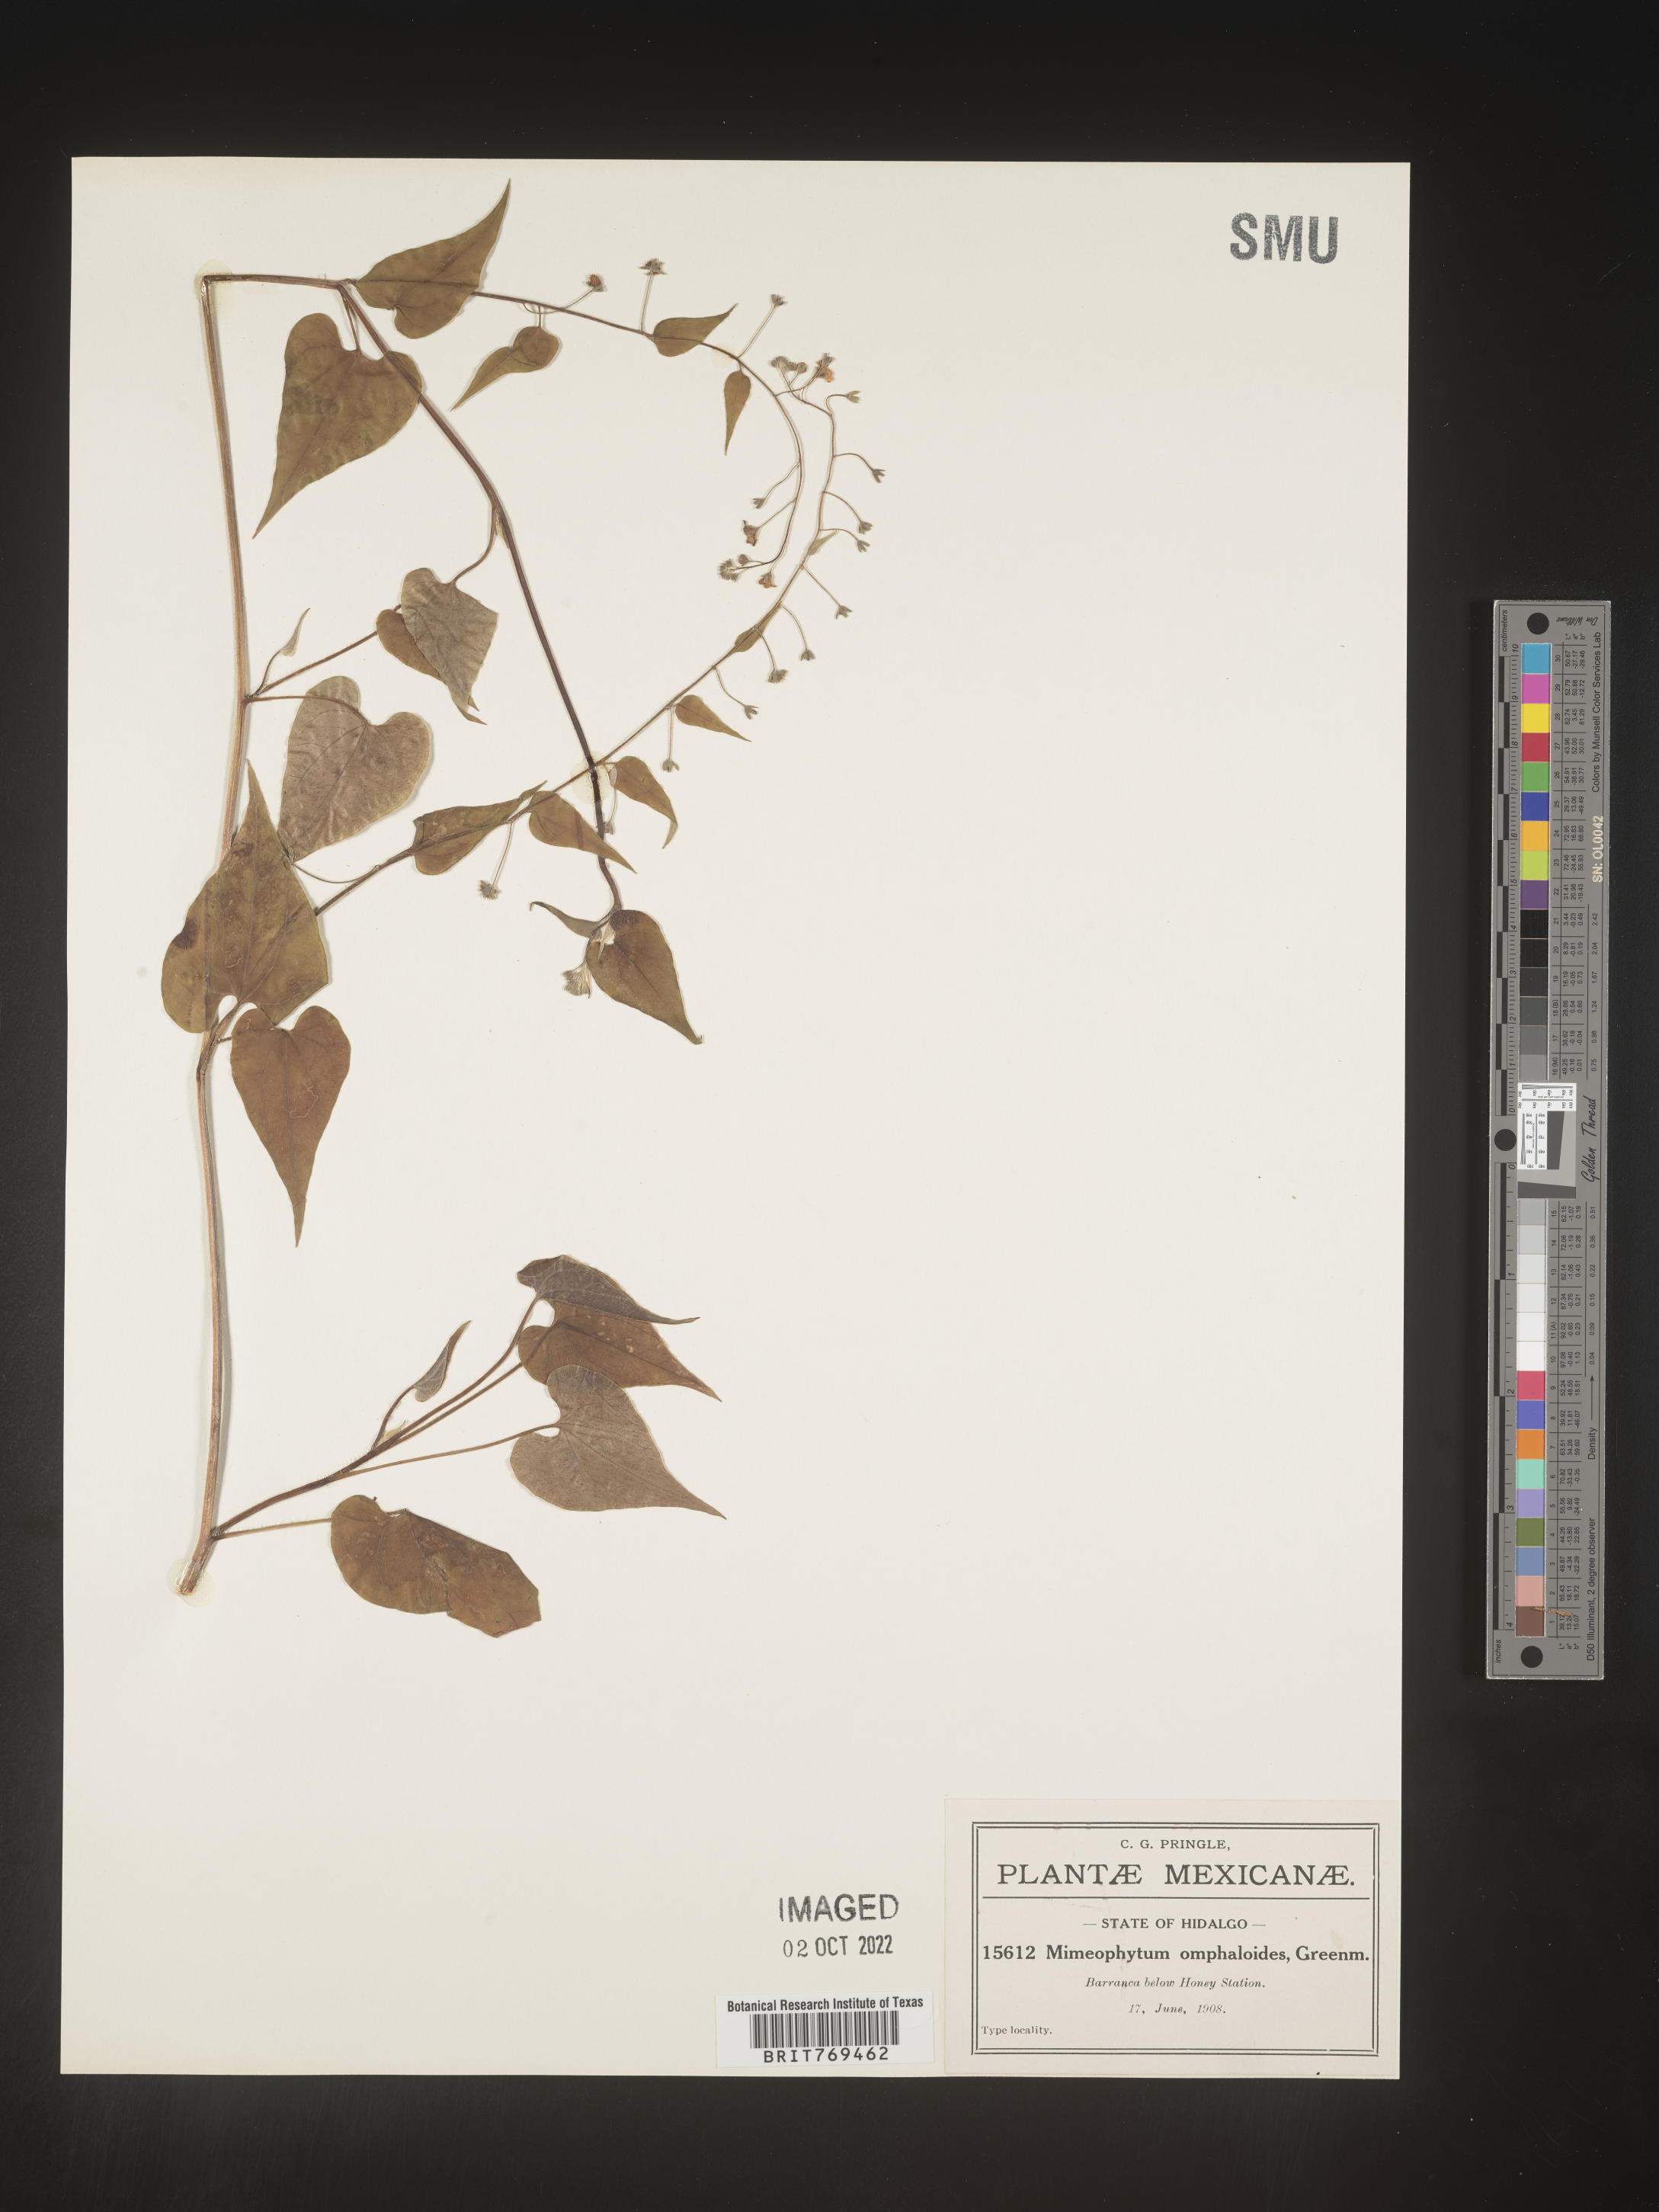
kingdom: Plantae
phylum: Tracheophyta
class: Magnoliopsida
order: Boraginales
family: Boraginaceae
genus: Mimophytum
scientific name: Mimophytum omphalodoides
